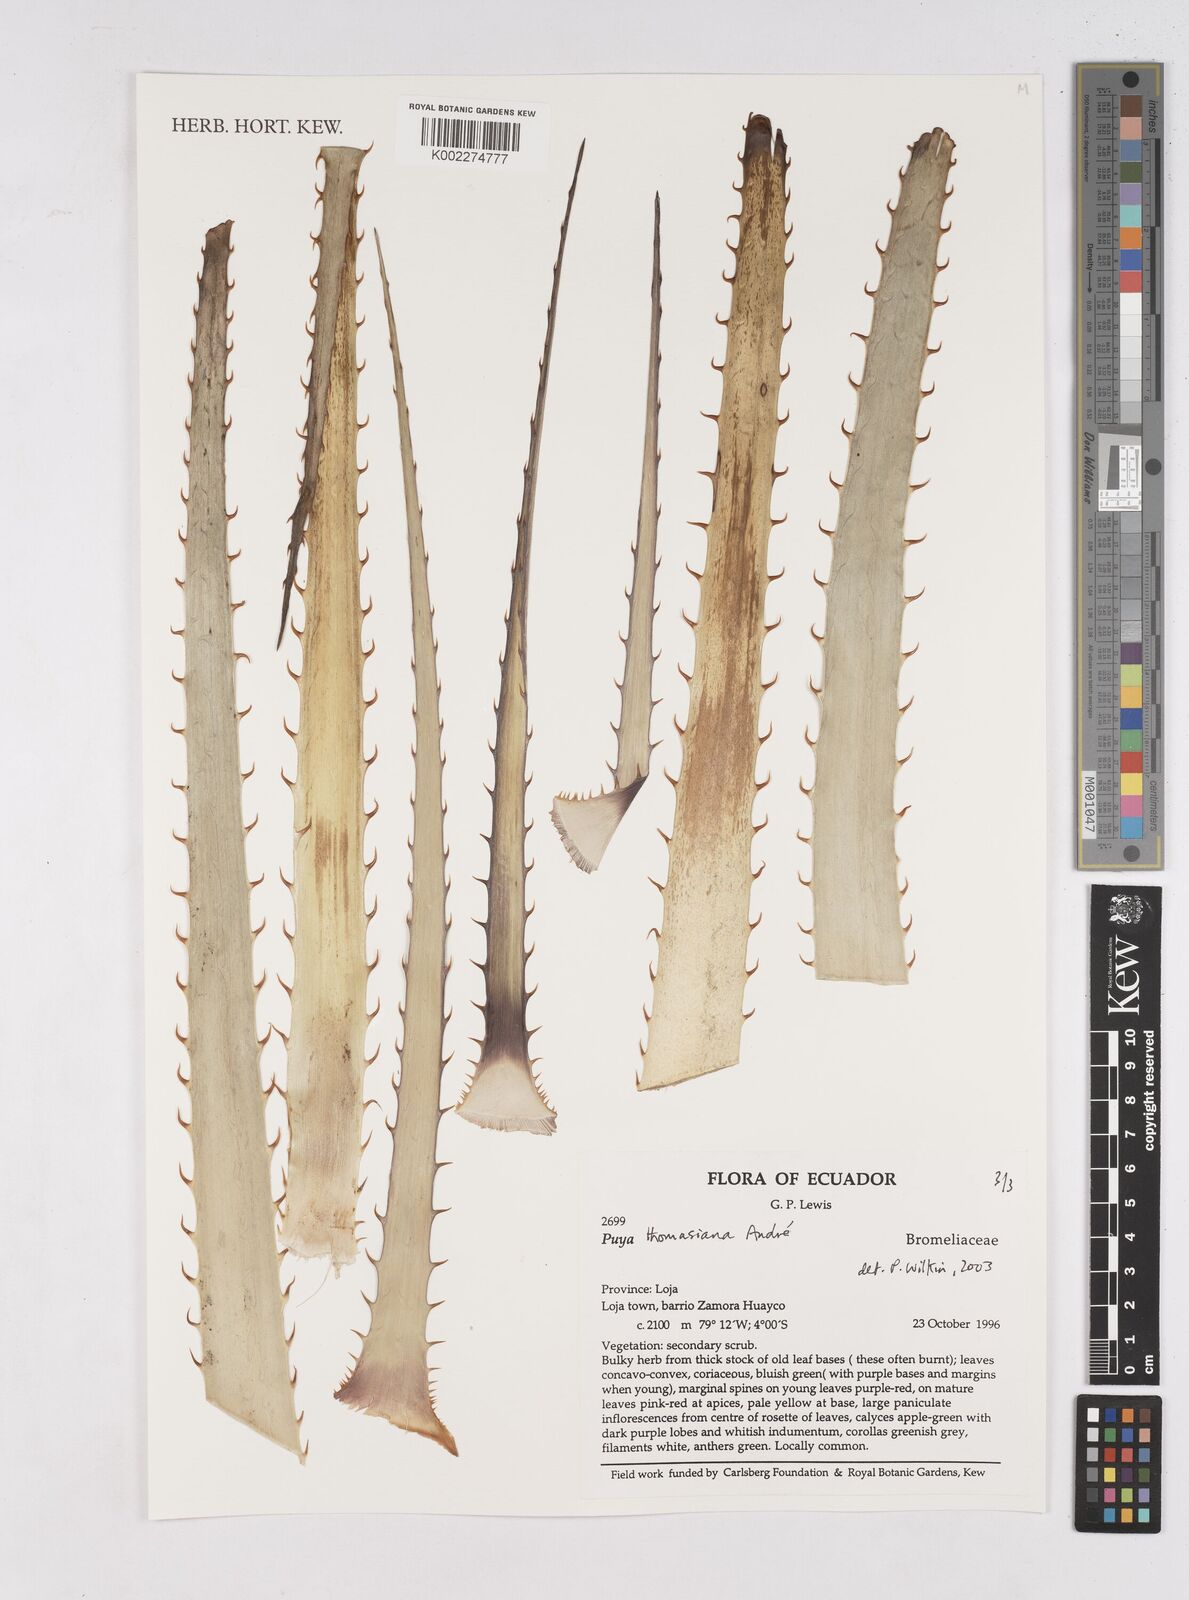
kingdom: Plantae
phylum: Tracheophyta
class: Liliopsida
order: Poales
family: Bromeliaceae
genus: Puya
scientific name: Puya thomasiana
